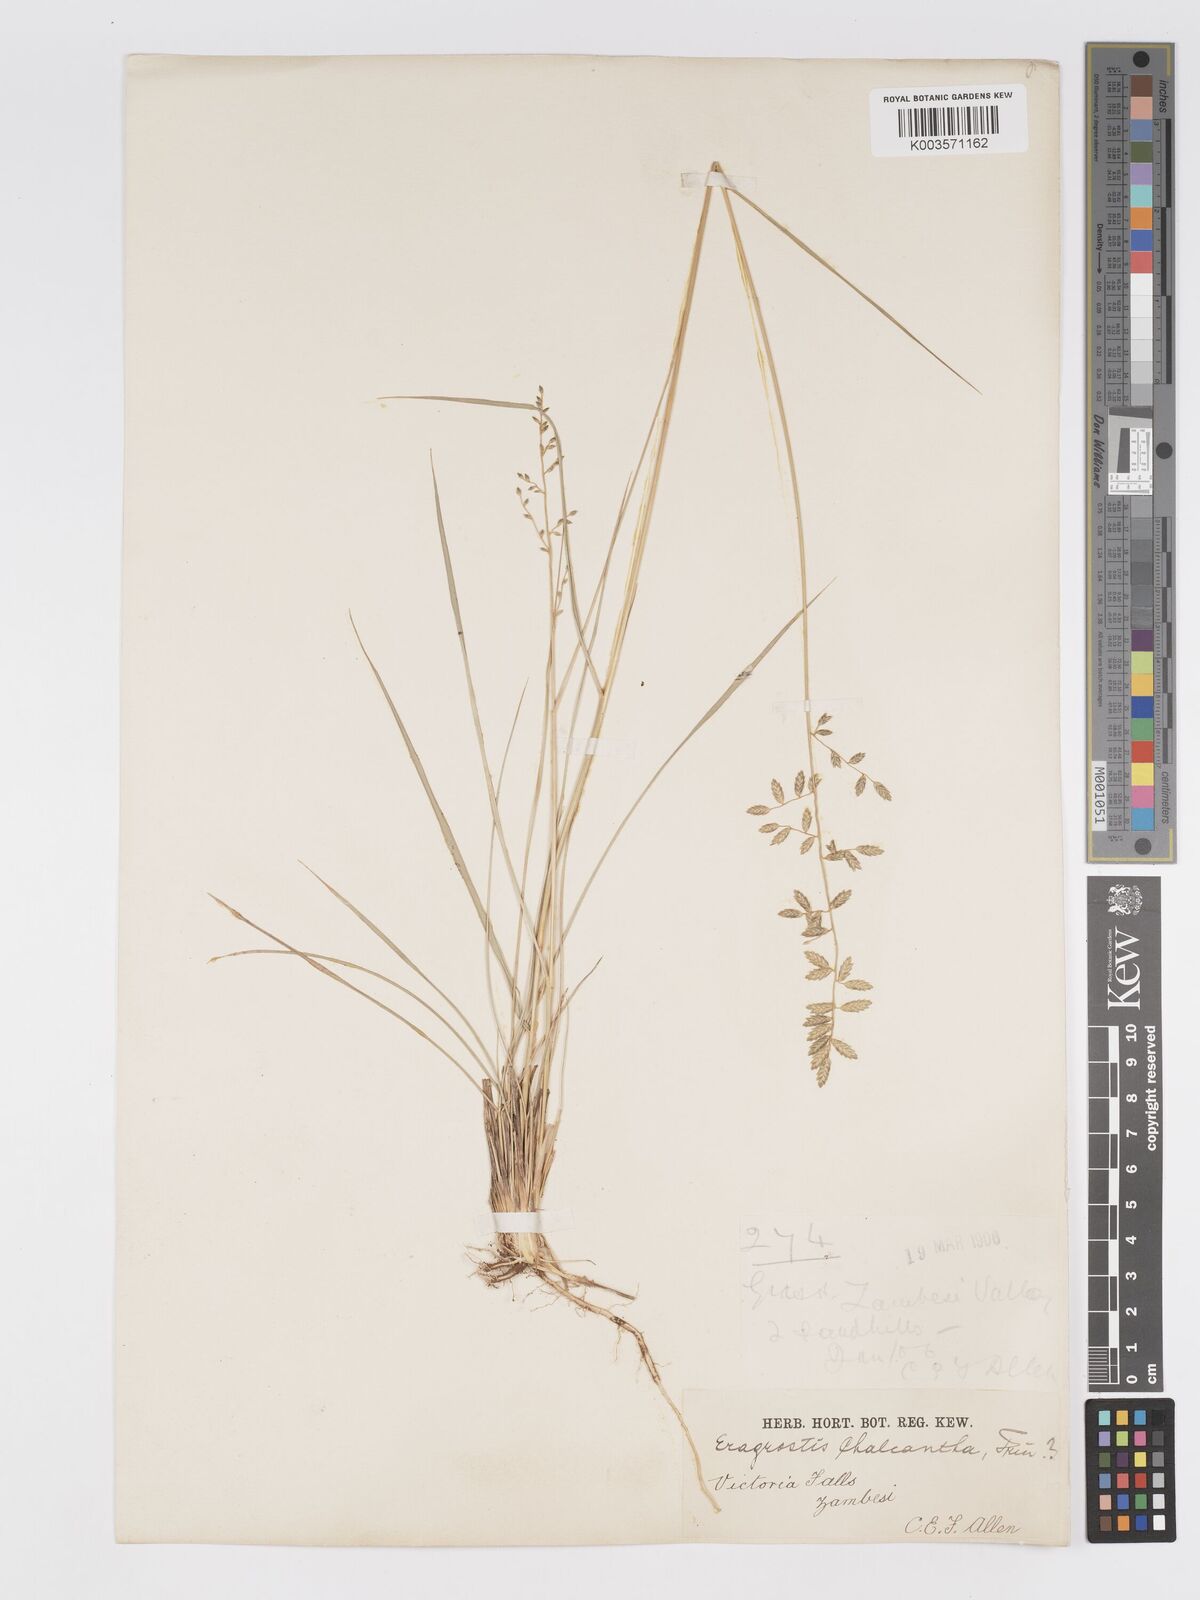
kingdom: Plantae
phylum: Tracheophyta
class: Liliopsida
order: Poales
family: Poaceae
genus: Eragrostis
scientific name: Eragrostis nindensis
